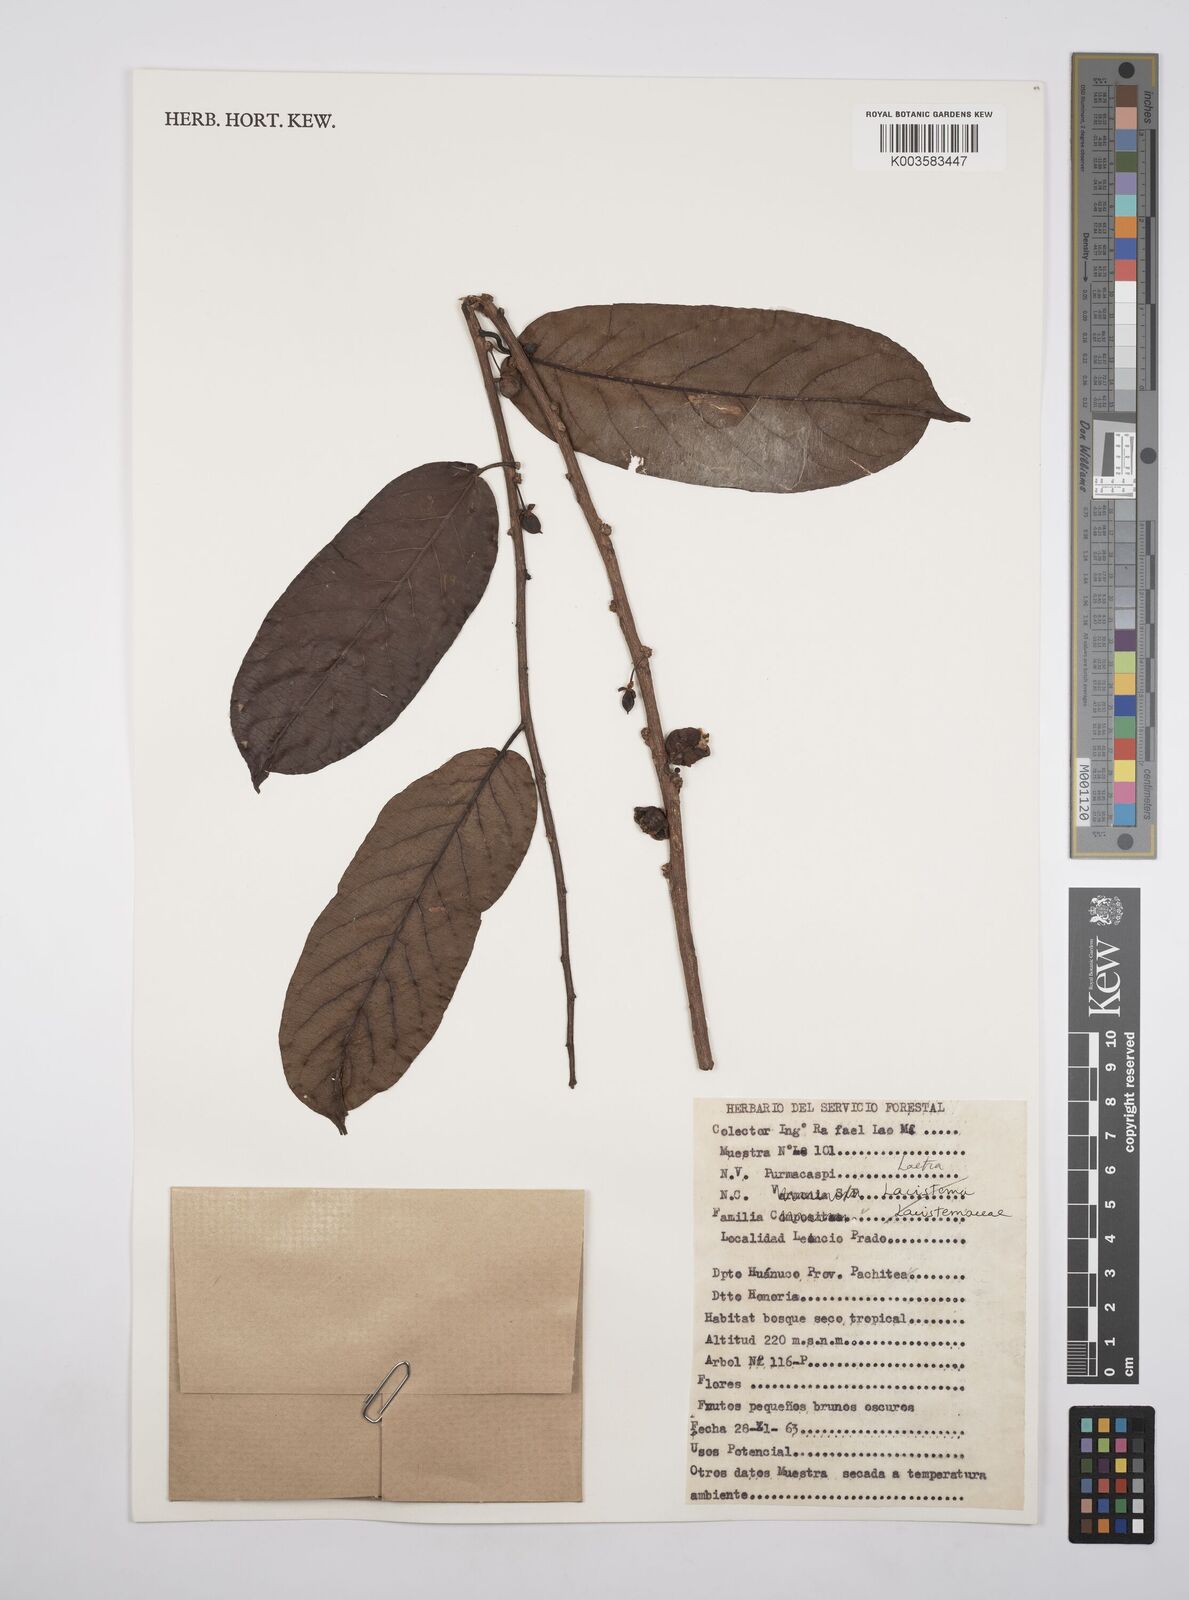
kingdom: Plantae
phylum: Tracheophyta
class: Magnoliopsida
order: Malpighiales
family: Flacourtiaceae
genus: Laetia
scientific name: Laetia
